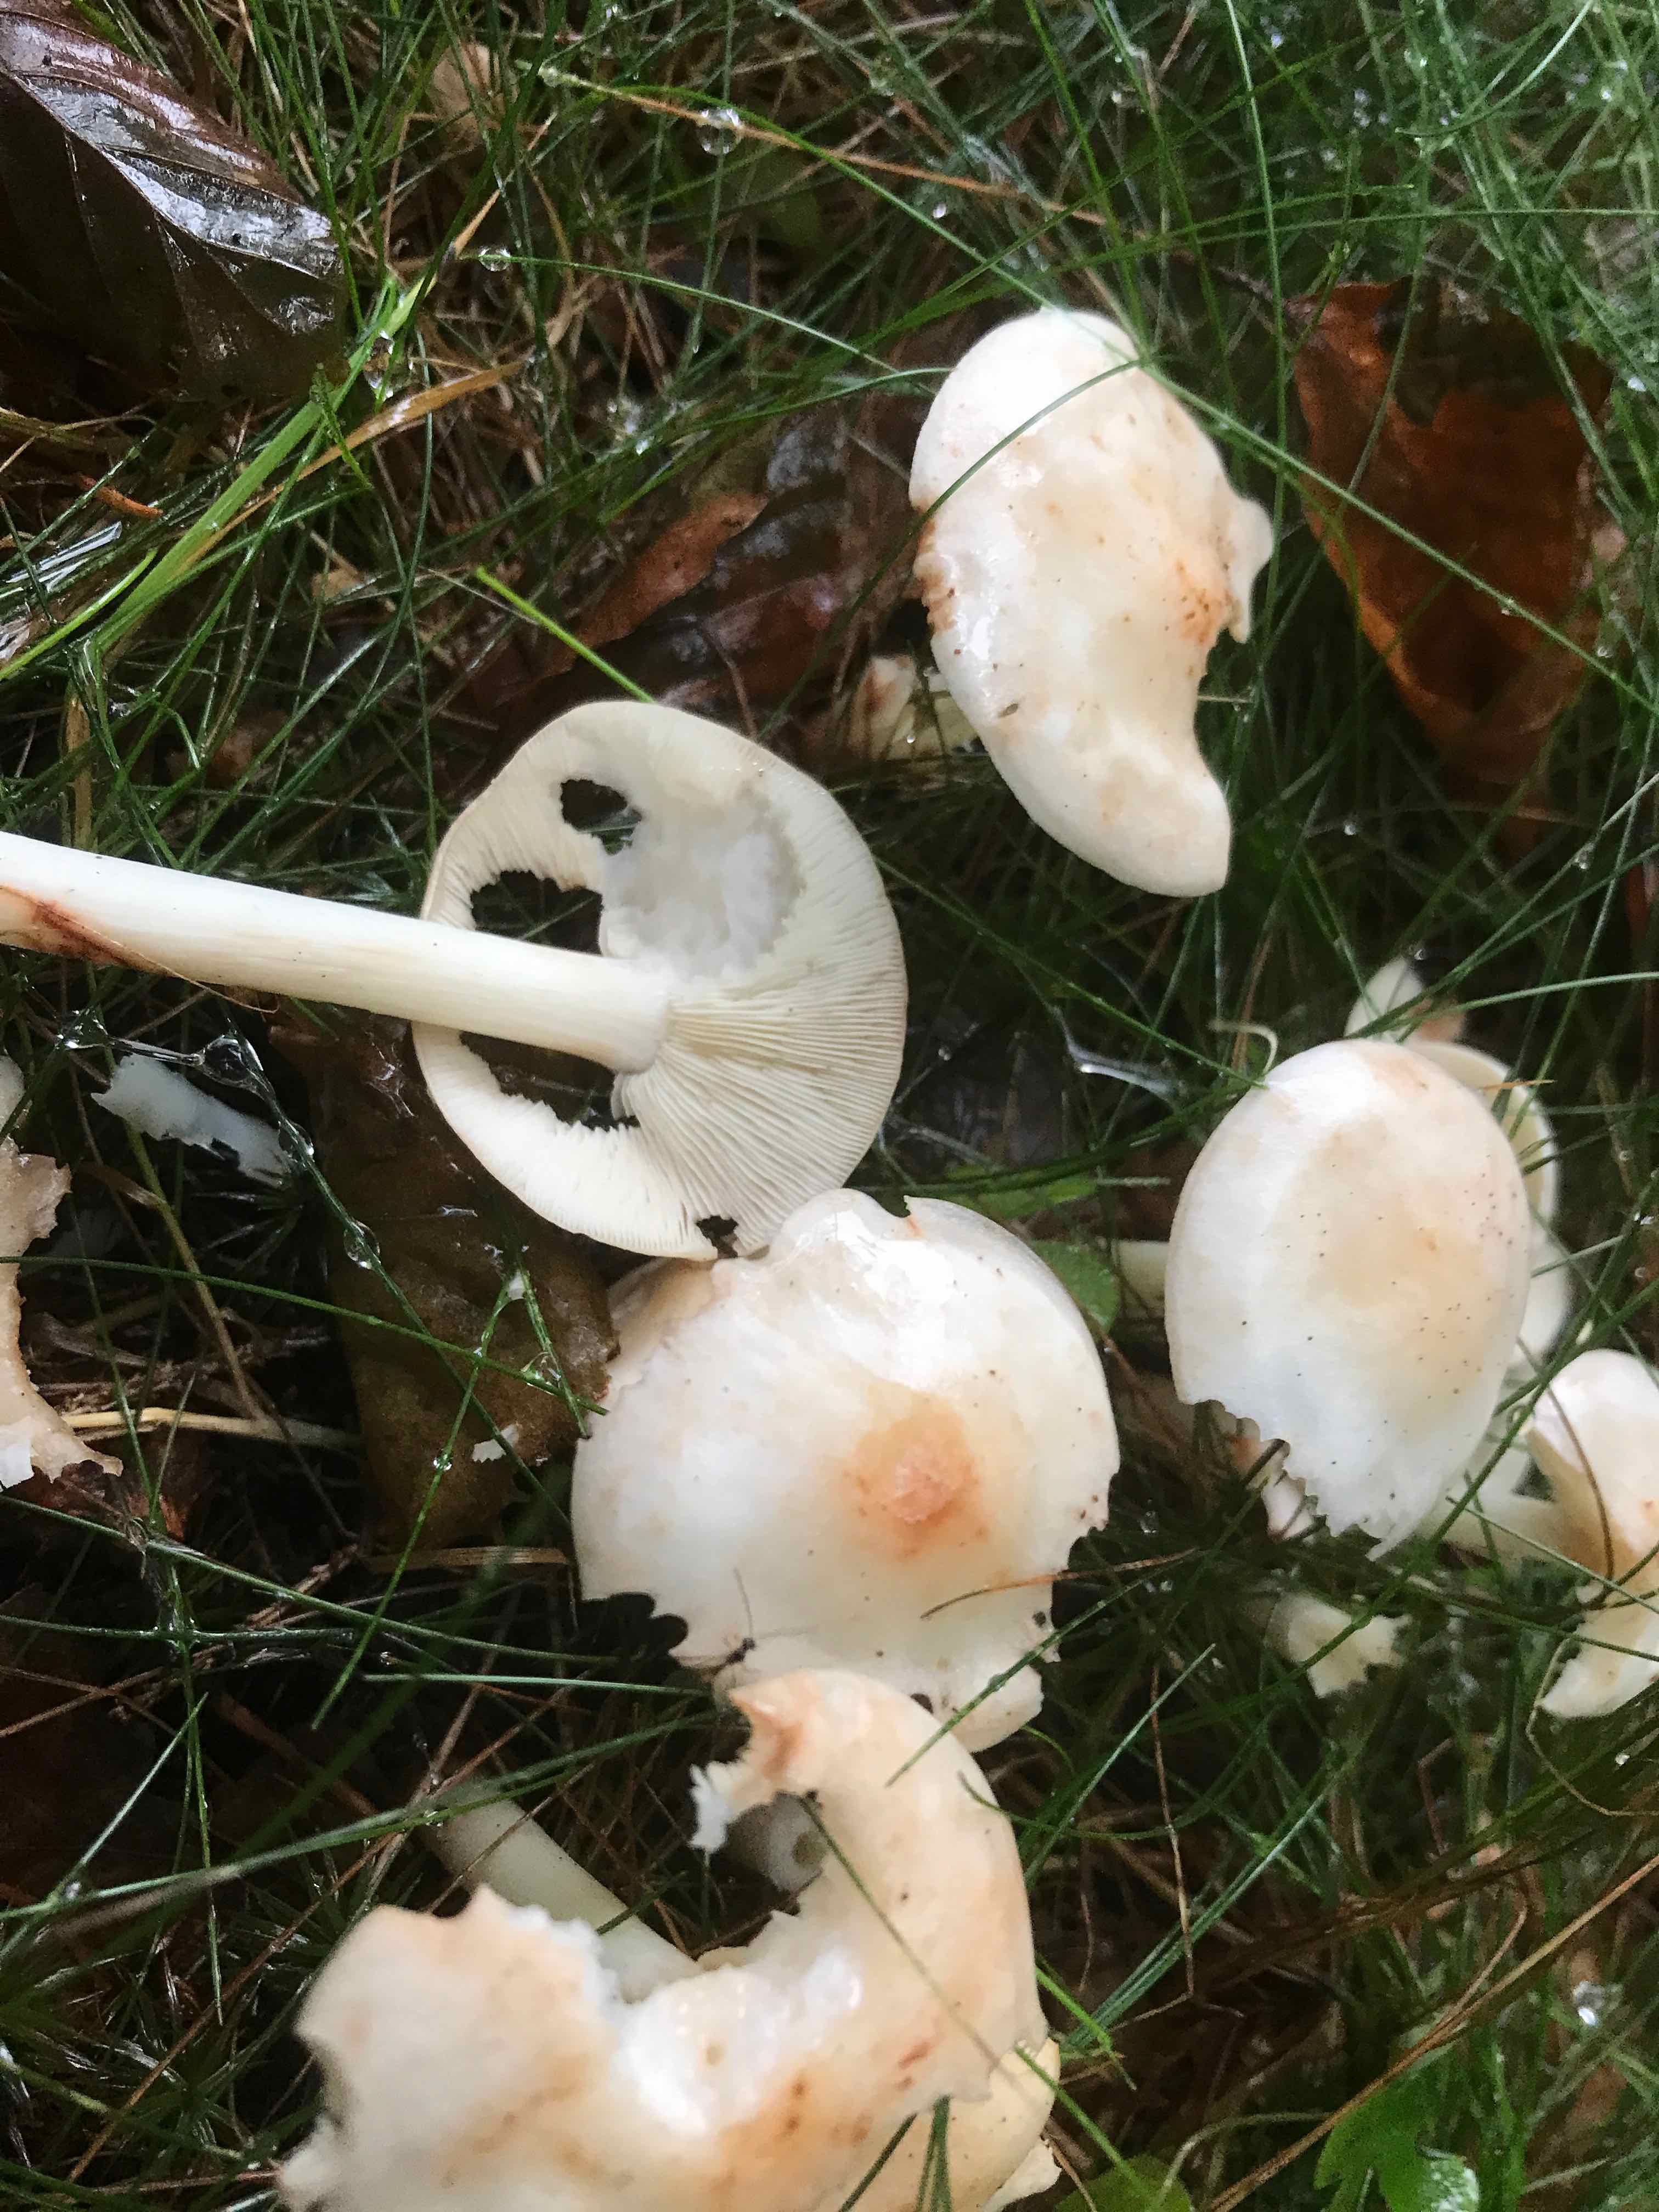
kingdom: Fungi
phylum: Basidiomycota
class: Agaricomycetes
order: Agaricales
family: Omphalotaceae
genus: Rhodocollybia
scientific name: Rhodocollybia maculata
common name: plettet fladhat
